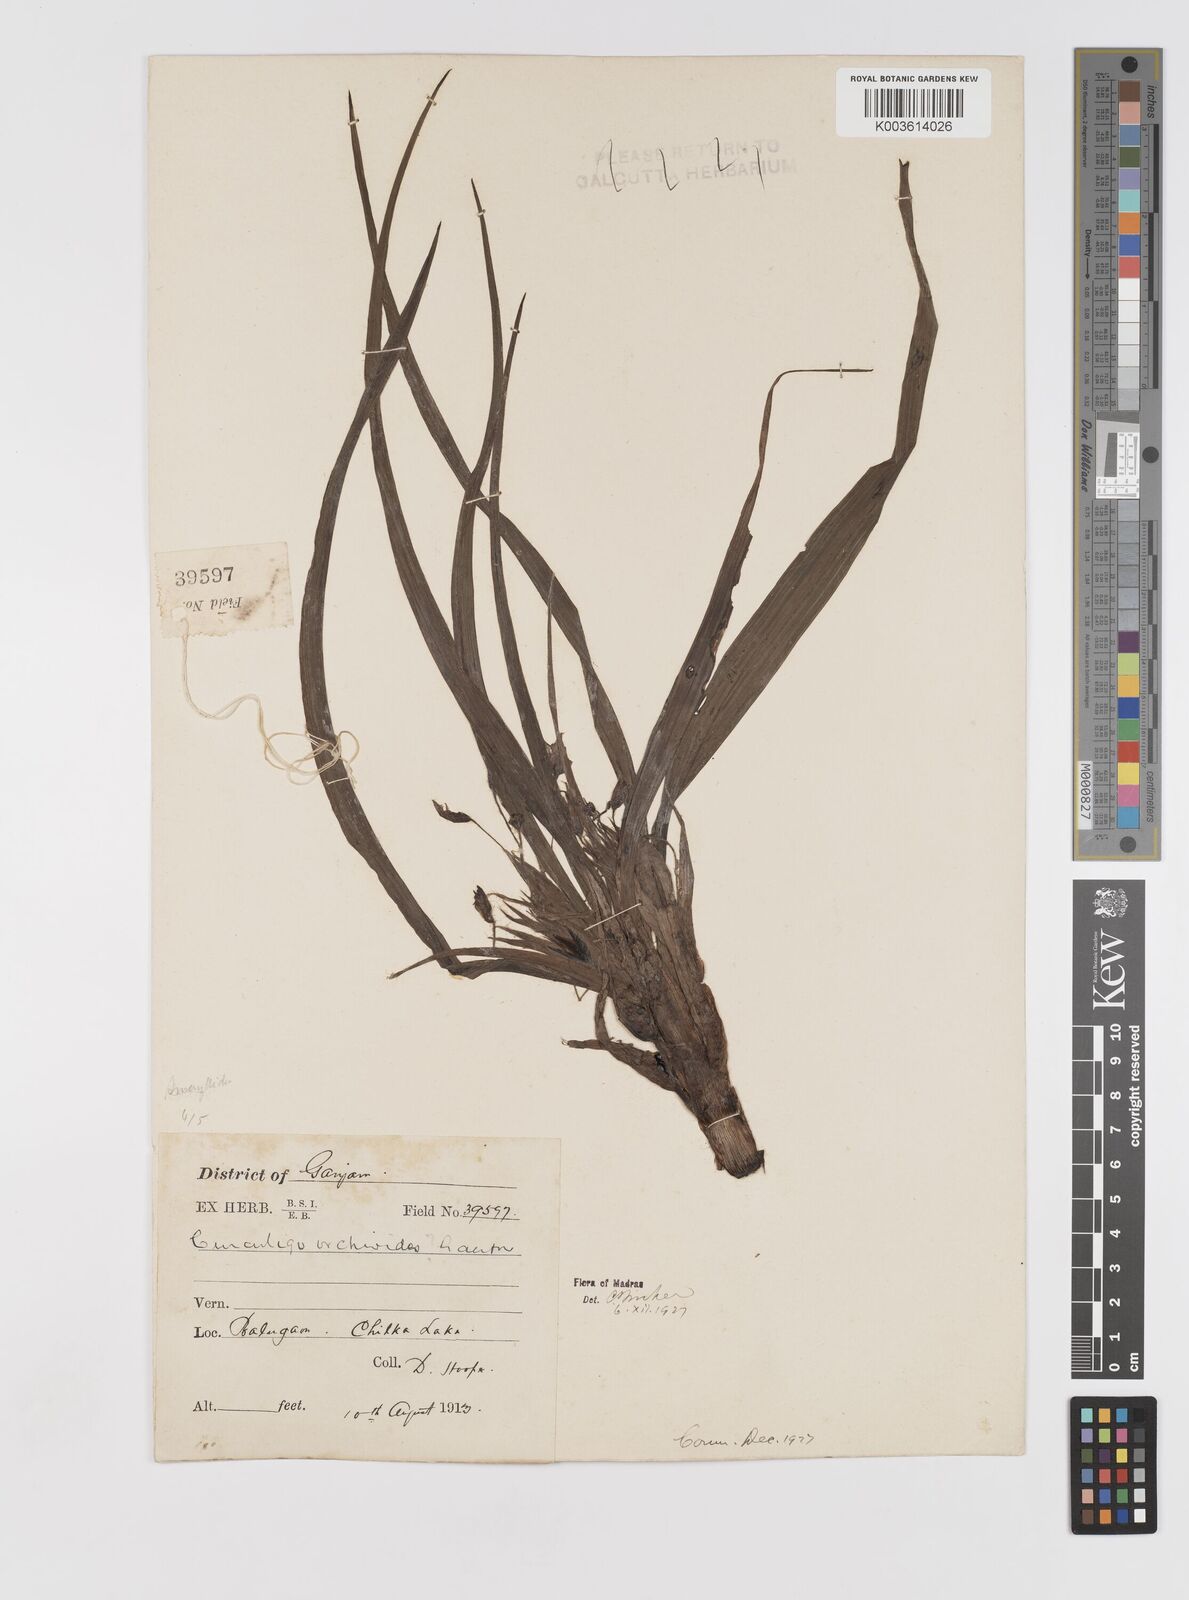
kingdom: Plantae
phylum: Tracheophyta
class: Liliopsida
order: Asparagales
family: Hypoxidaceae
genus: Curculigo
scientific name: Curculigo orchioides
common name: Golden eye-grass
